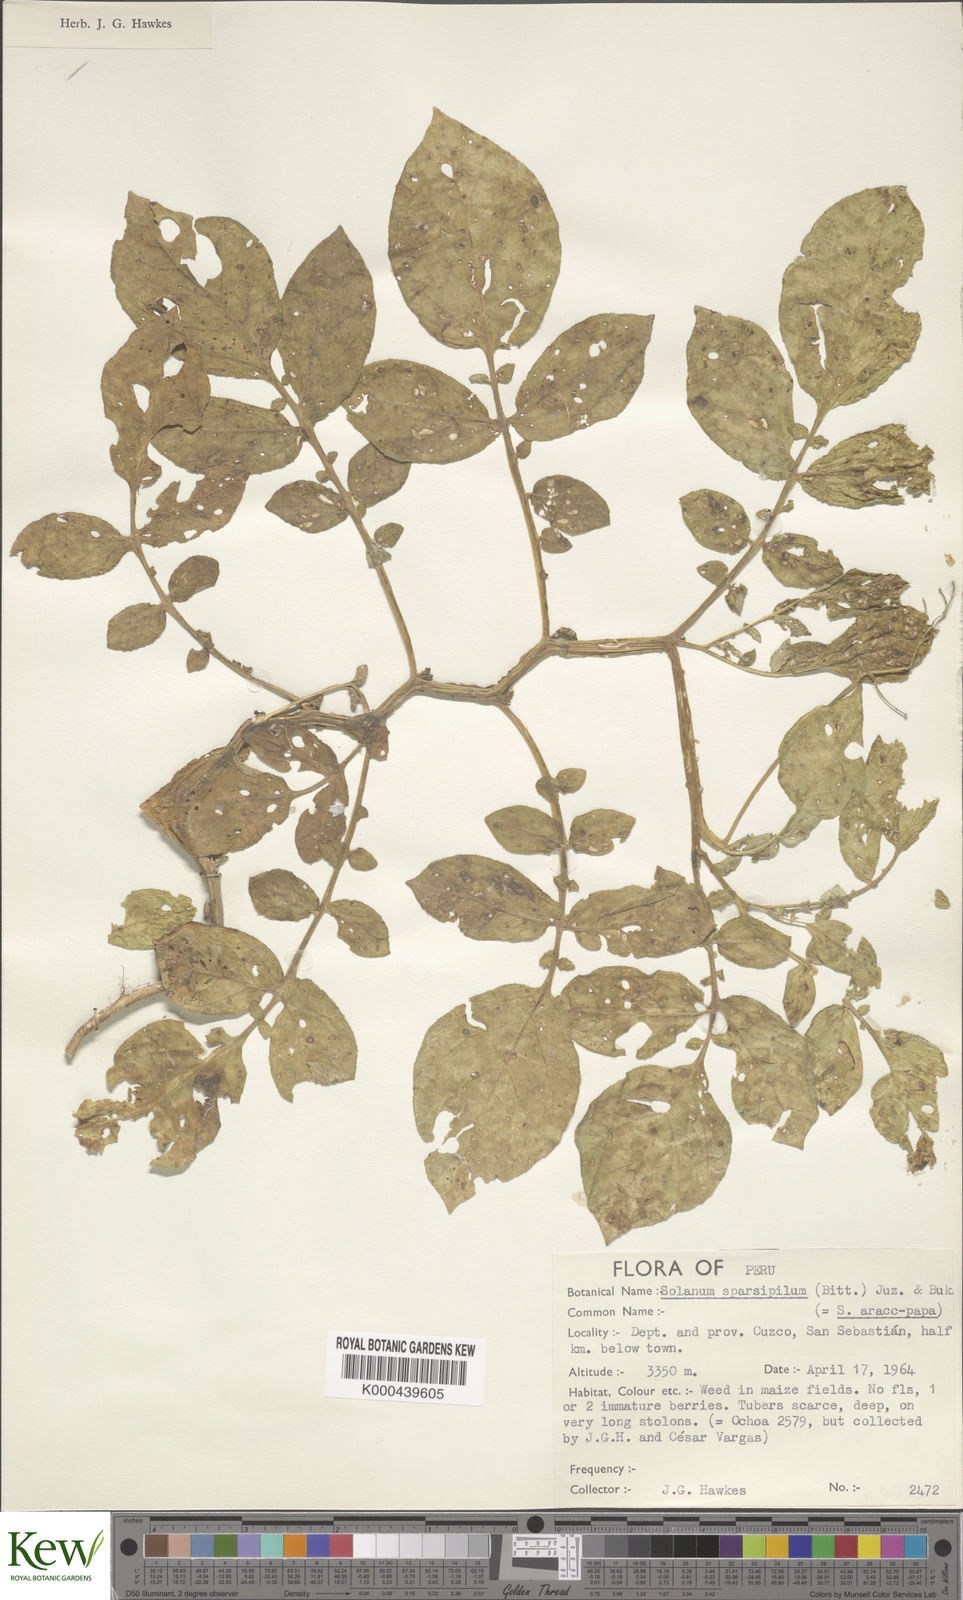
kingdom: Plantae
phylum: Tracheophyta
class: Magnoliopsida
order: Solanales
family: Solanaceae
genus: Solanum
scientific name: Solanum brevicaule
